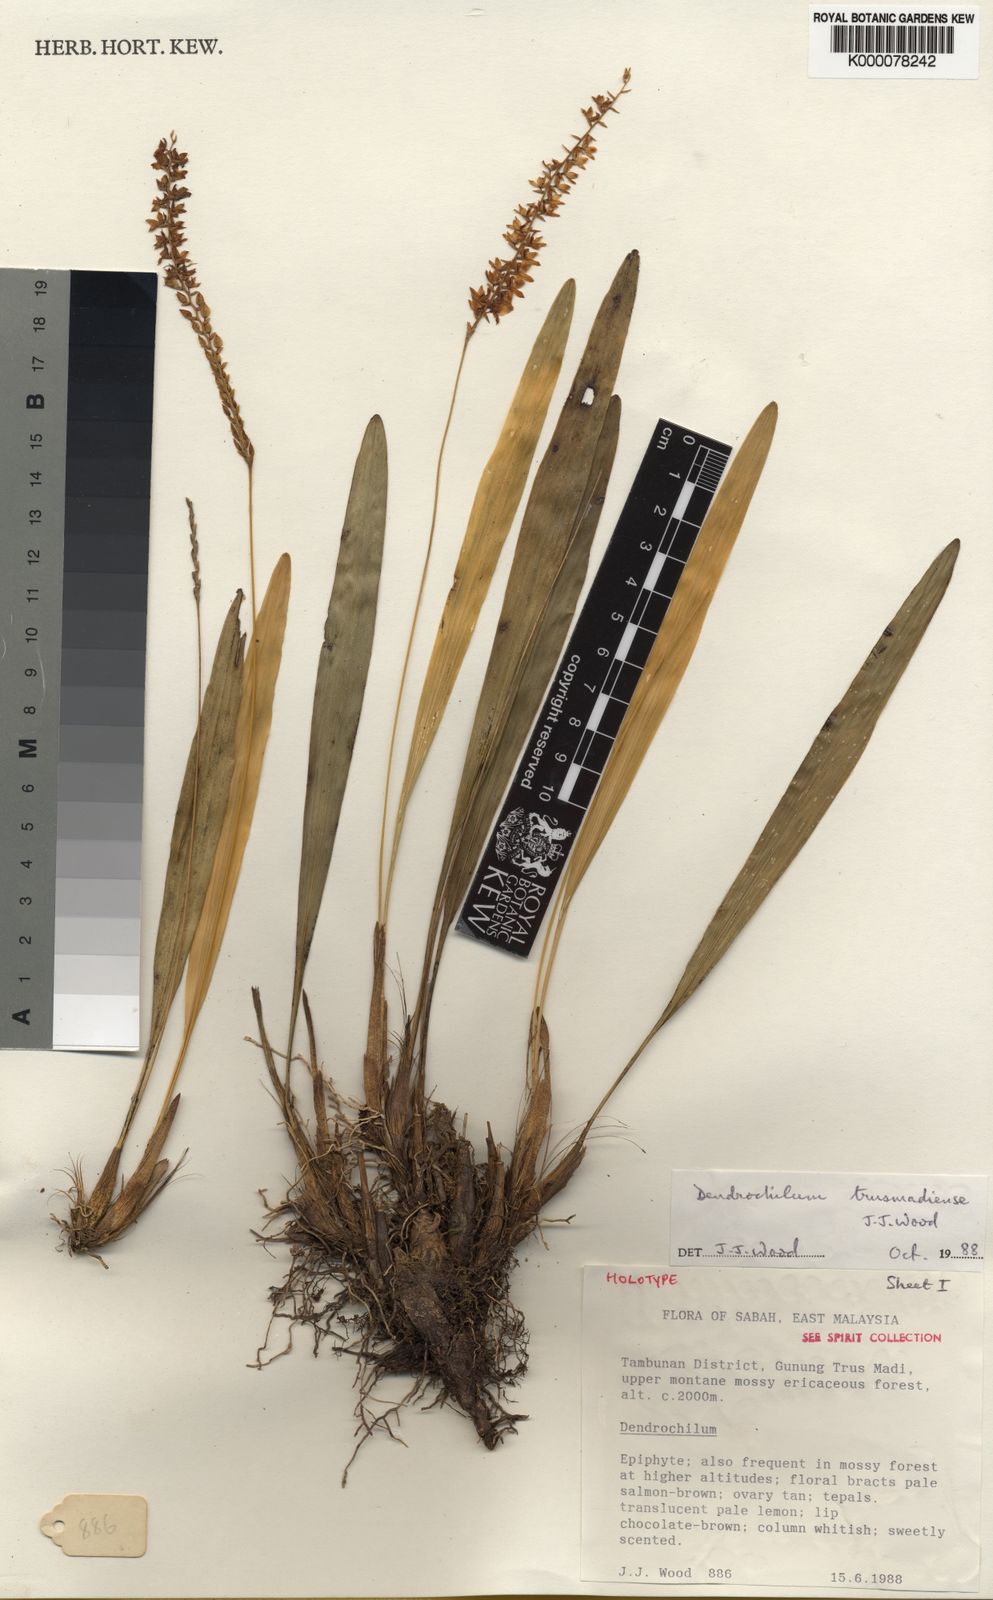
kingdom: Plantae
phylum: Tracheophyta
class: Liliopsida
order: Asparagales
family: Orchidaceae
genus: Coelogyne
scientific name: Coelogyne trusmadiensis
